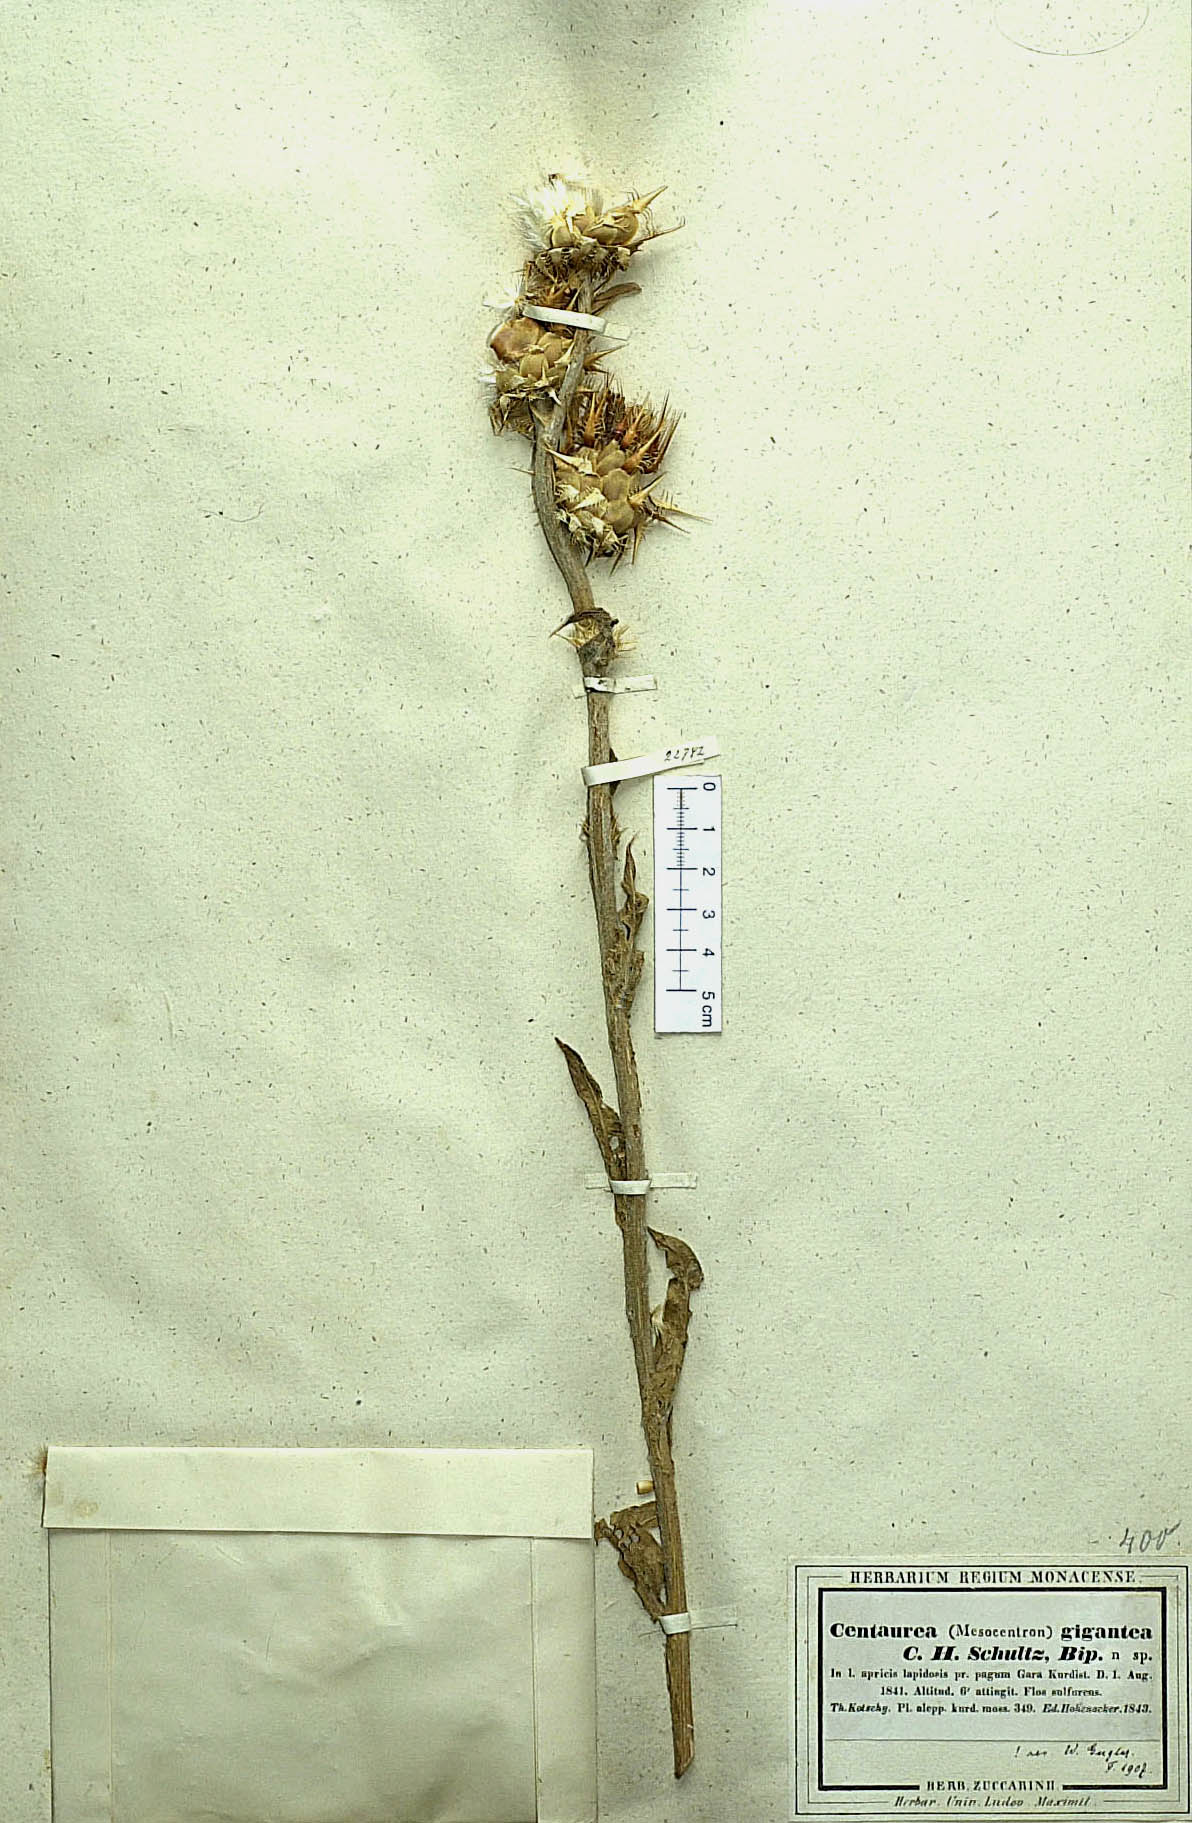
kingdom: Plantae
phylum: Tracheophyta
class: Magnoliopsida
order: Asterales
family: Asteraceae
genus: Centaurea
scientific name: Centaurea gigantea
